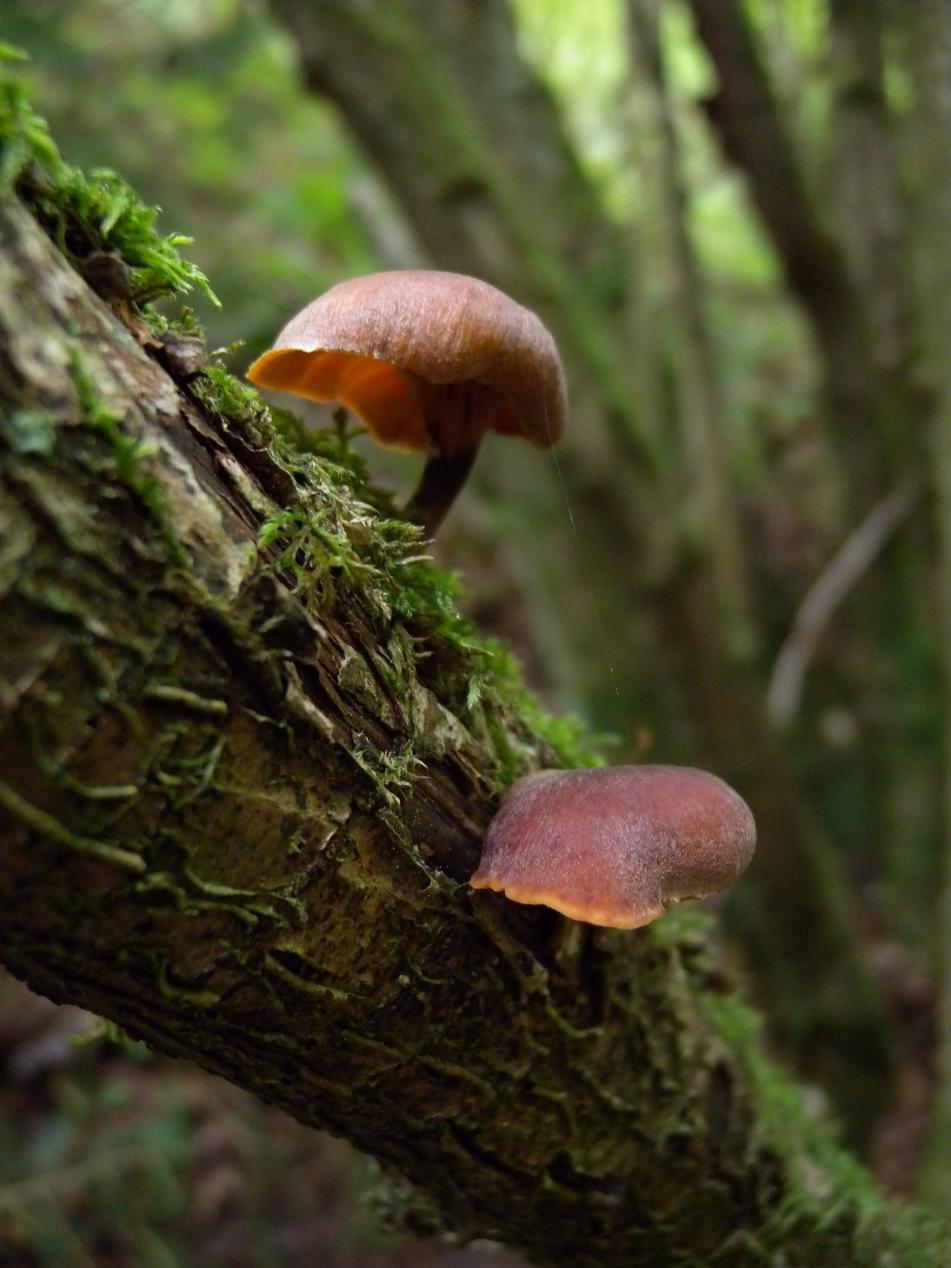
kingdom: Fungi
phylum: Basidiomycota
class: Agaricomycetes
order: Polyporales
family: Polyporaceae
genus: Picipes
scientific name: Picipes tubaeformis
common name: trompet-stilkporesvamp
